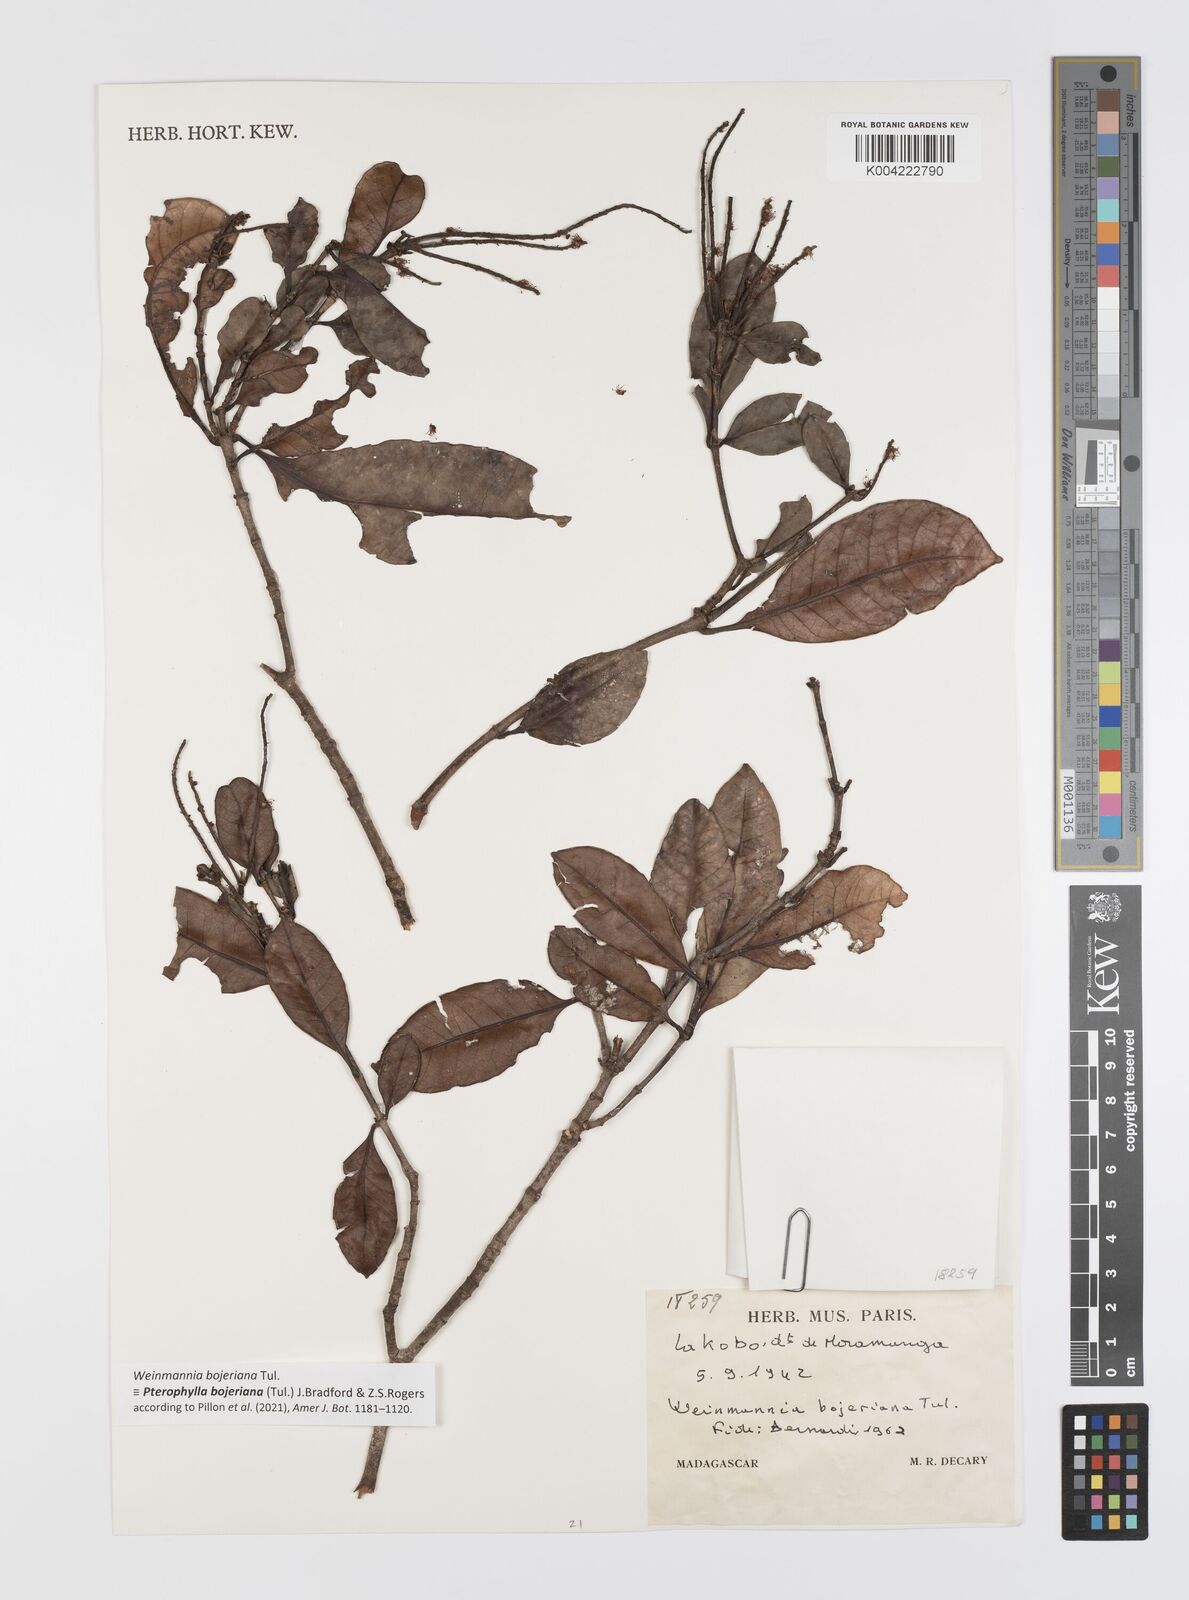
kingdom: Plantae
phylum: Tracheophyta
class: Magnoliopsida
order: Oxalidales
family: Cunoniaceae
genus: Pterophylla
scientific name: Pterophylla
